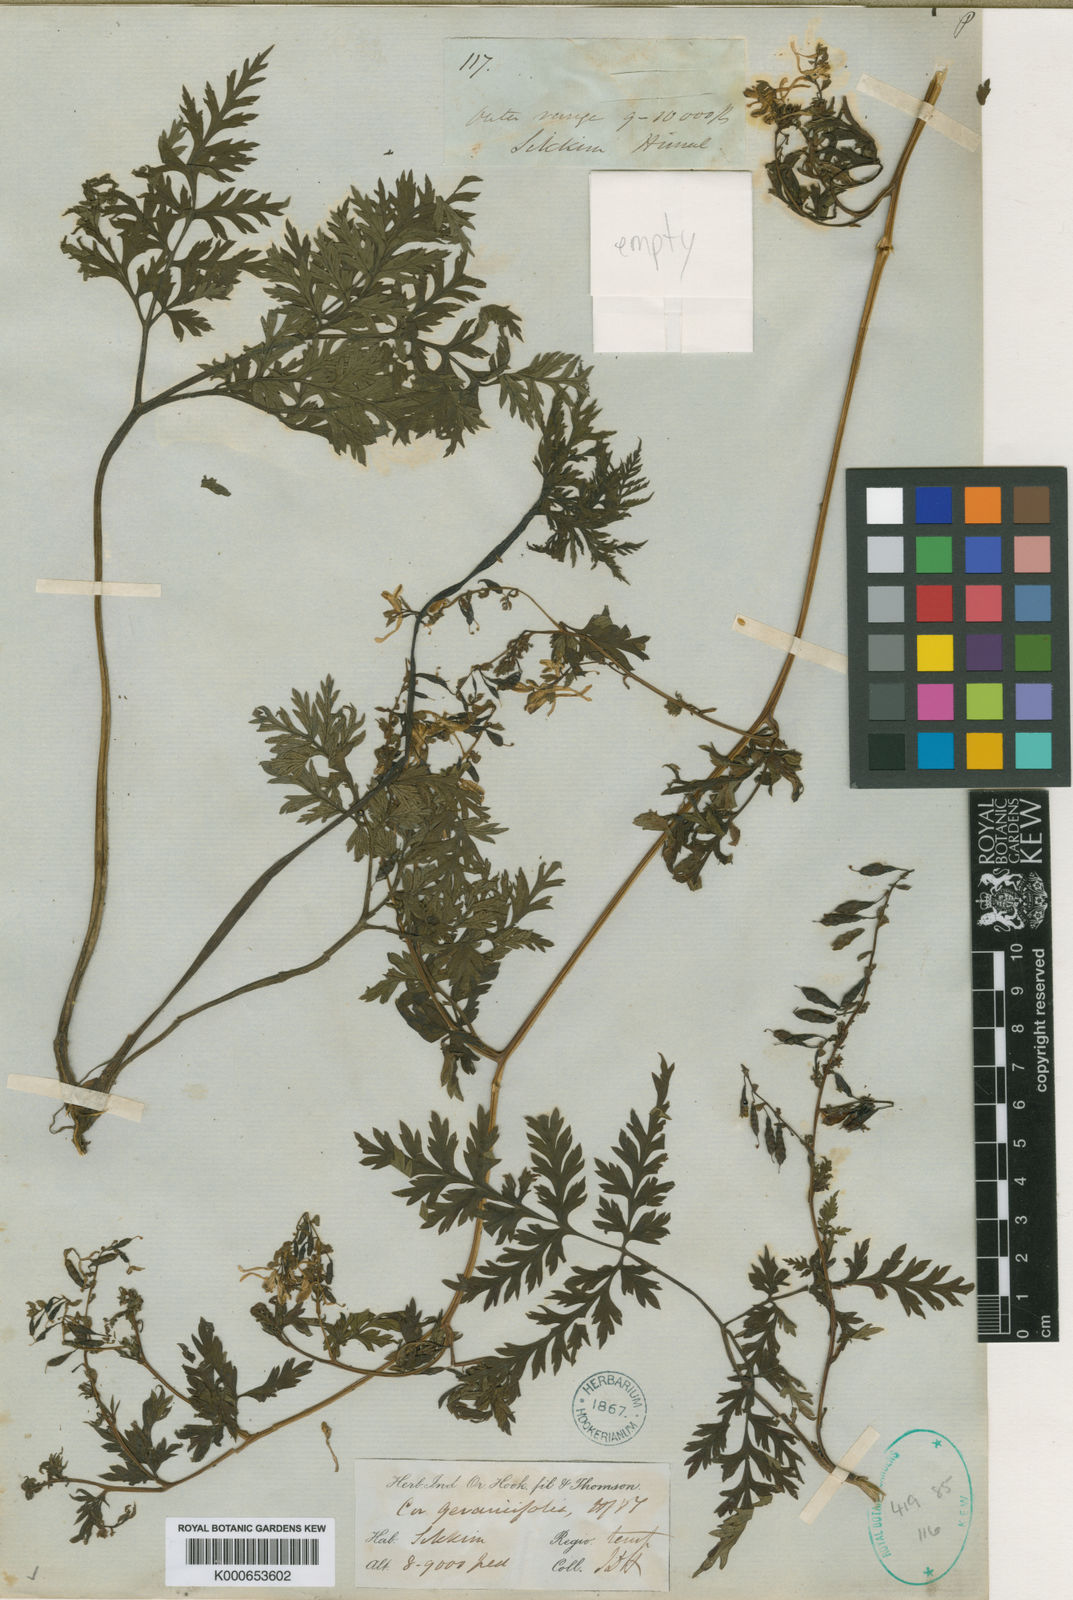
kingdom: Plantae
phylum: Tracheophyta
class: Magnoliopsida
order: Ranunculales
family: Papaveraceae
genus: Corydalis
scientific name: Corydalis geraniifolia
